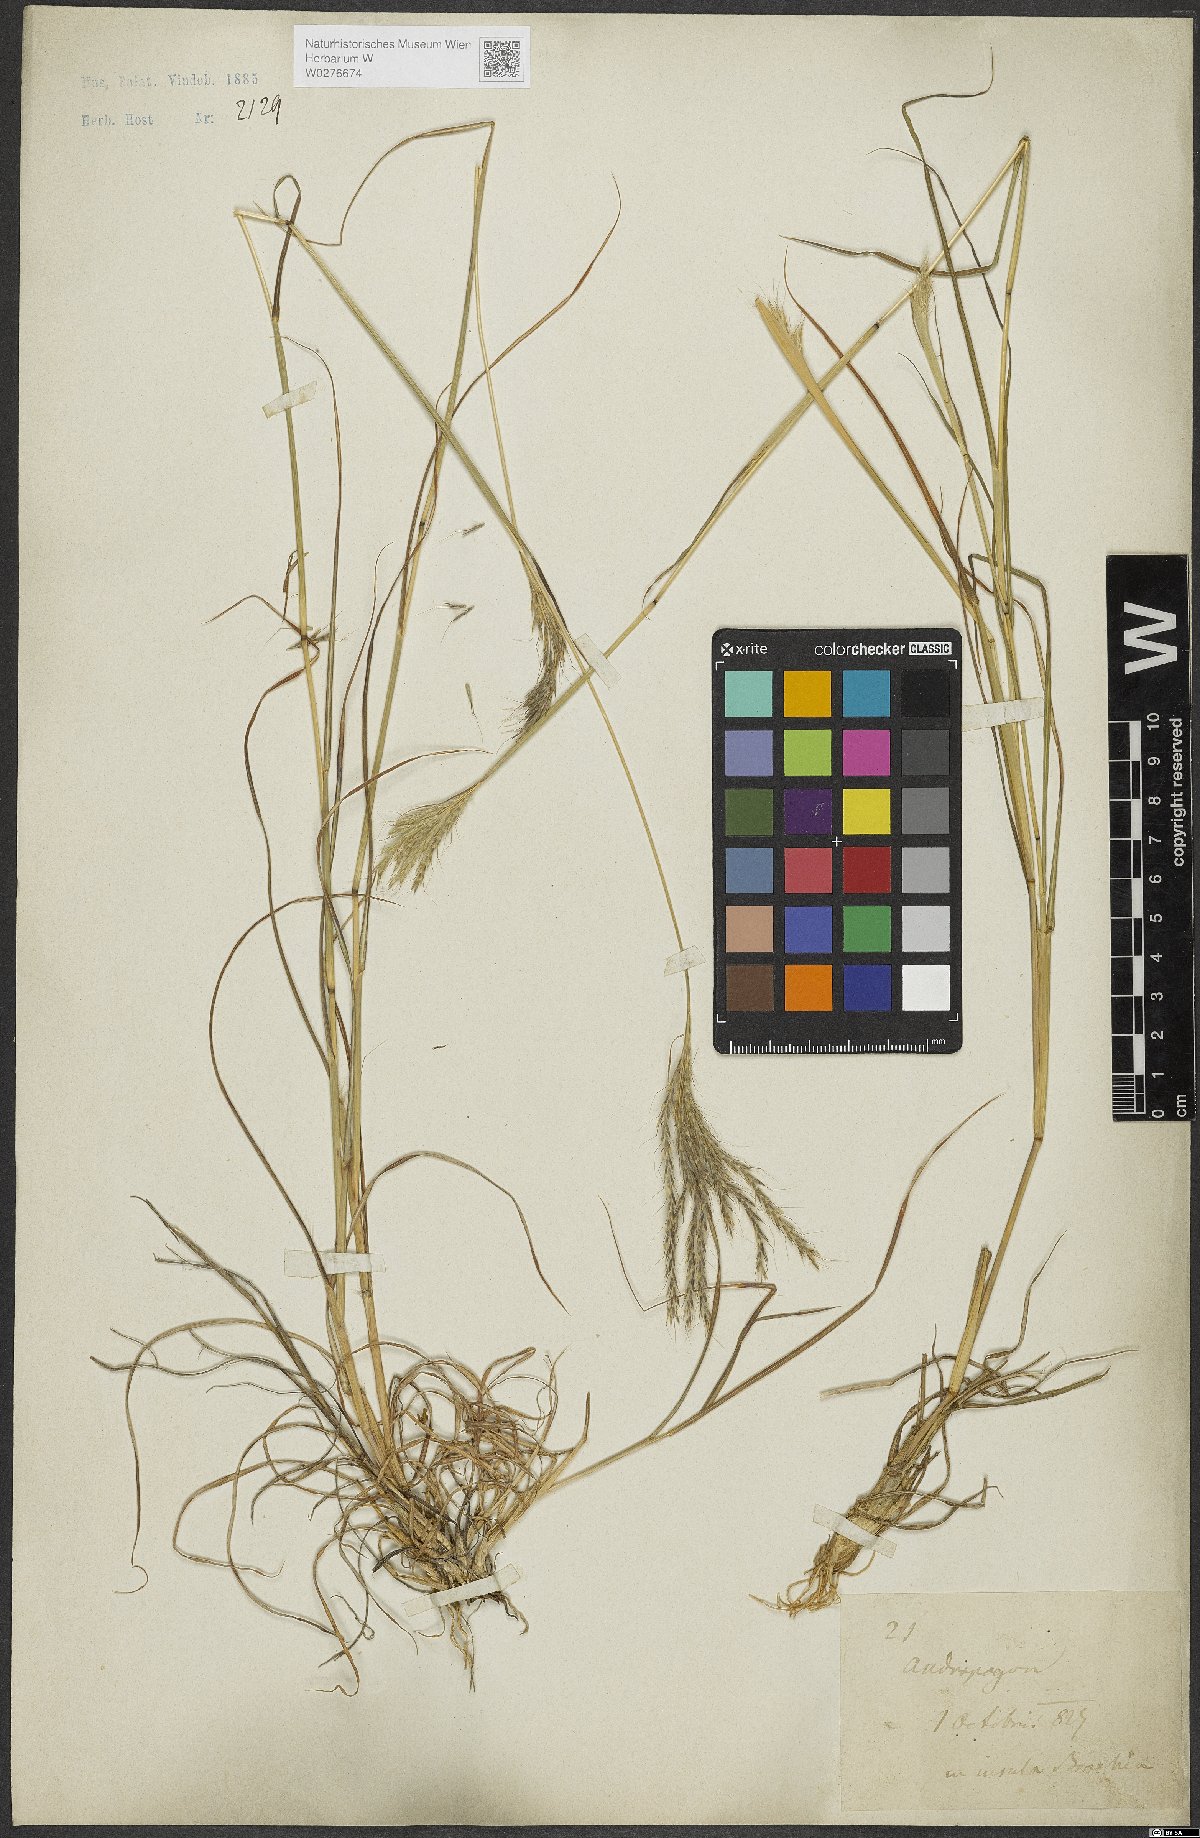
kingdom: Plantae
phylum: Tracheophyta
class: Liliopsida
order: Poales
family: Poaceae
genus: Andropogon
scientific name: Andropogon
